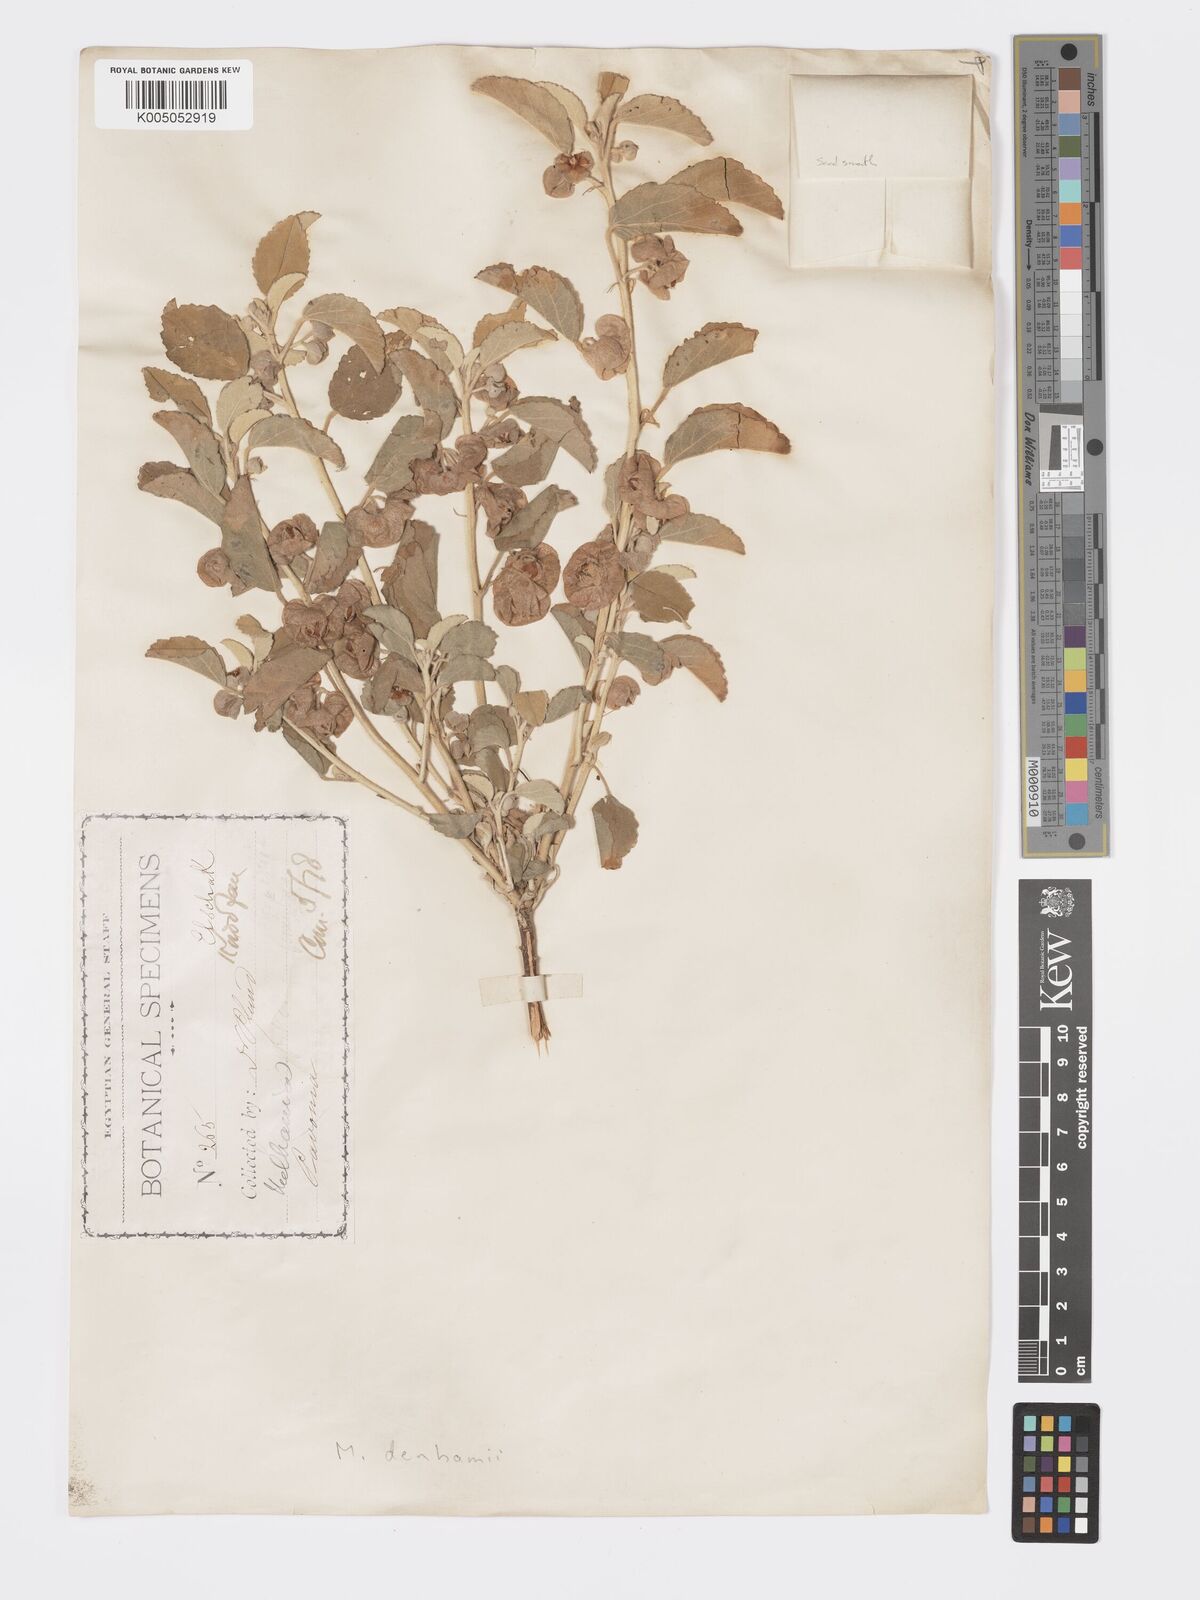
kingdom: Plantae
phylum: Tracheophyta
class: Magnoliopsida
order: Malvales
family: Malvaceae
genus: Melhania
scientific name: Melhania denhamii
